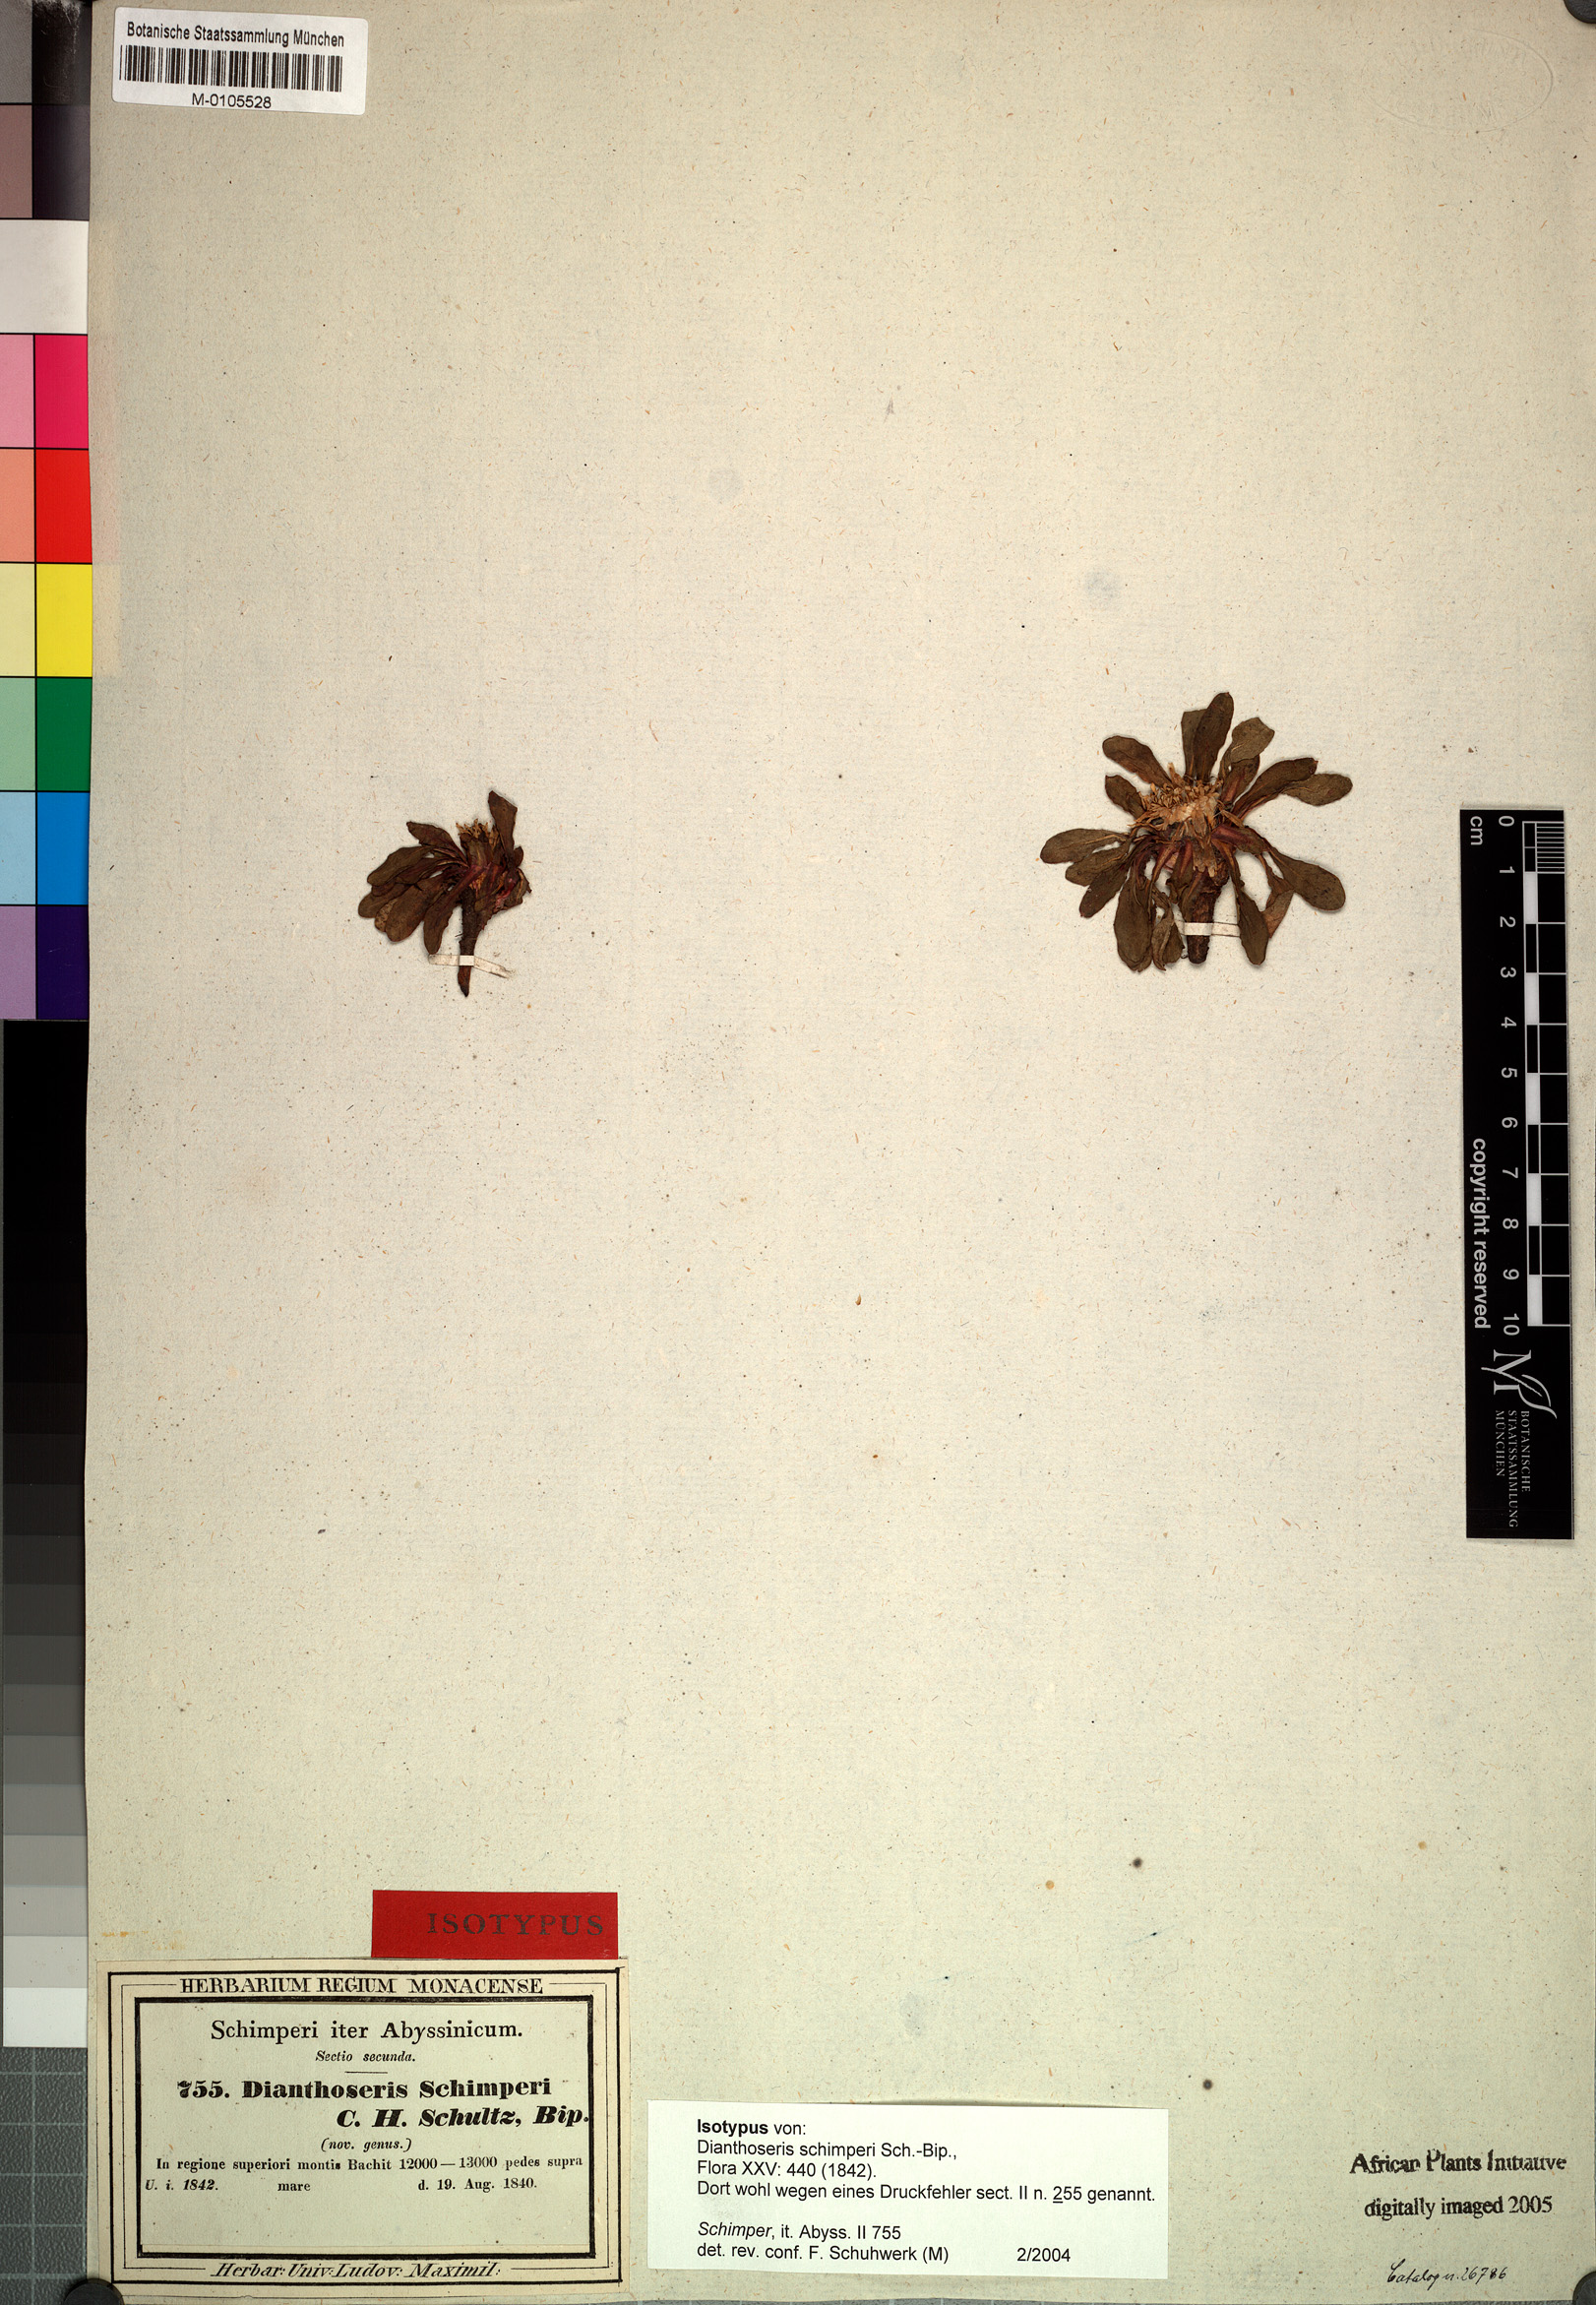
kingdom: Plantae
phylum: Tracheophyta
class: Magnoliopsida
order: Asterales
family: Asteraceae
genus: Crepis
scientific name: Crepis dianthoseris
